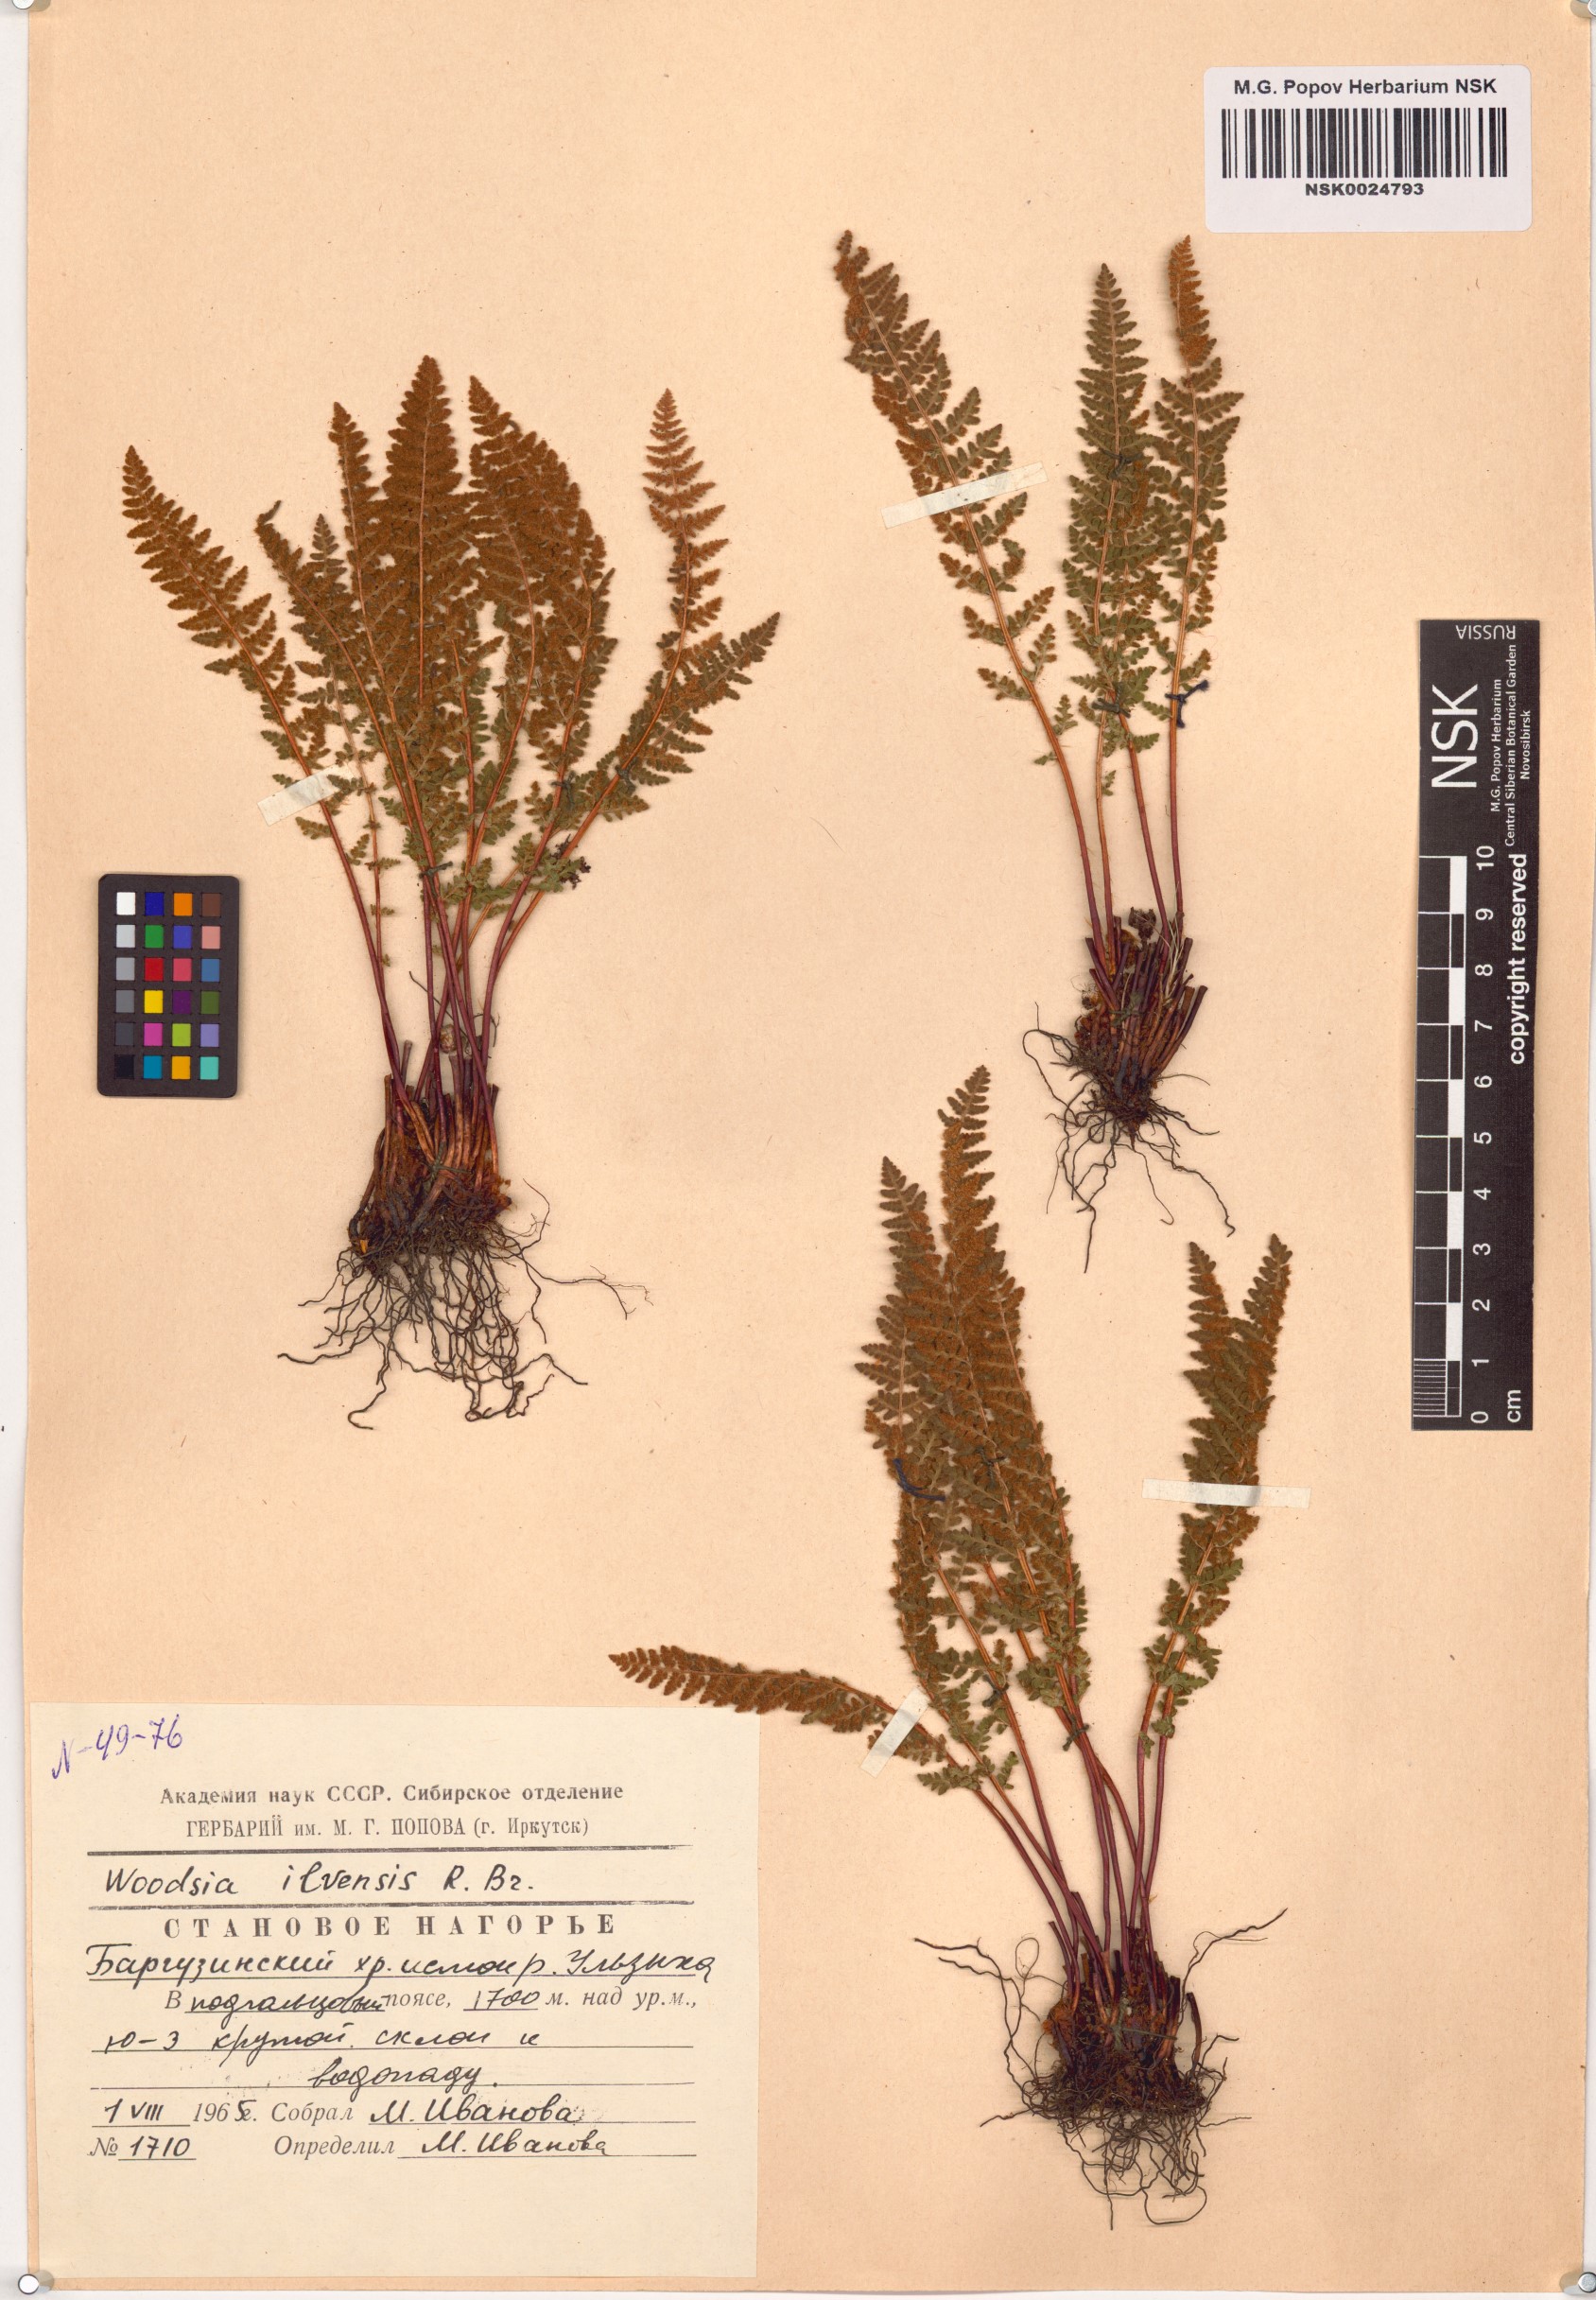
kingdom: Plantae
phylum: Tracheophyta
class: Polypodiopsida
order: Polypodiales
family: Woodsiaceae
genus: Woodsia
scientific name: Woodsia ilvensis
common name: Fragrant woodsia
